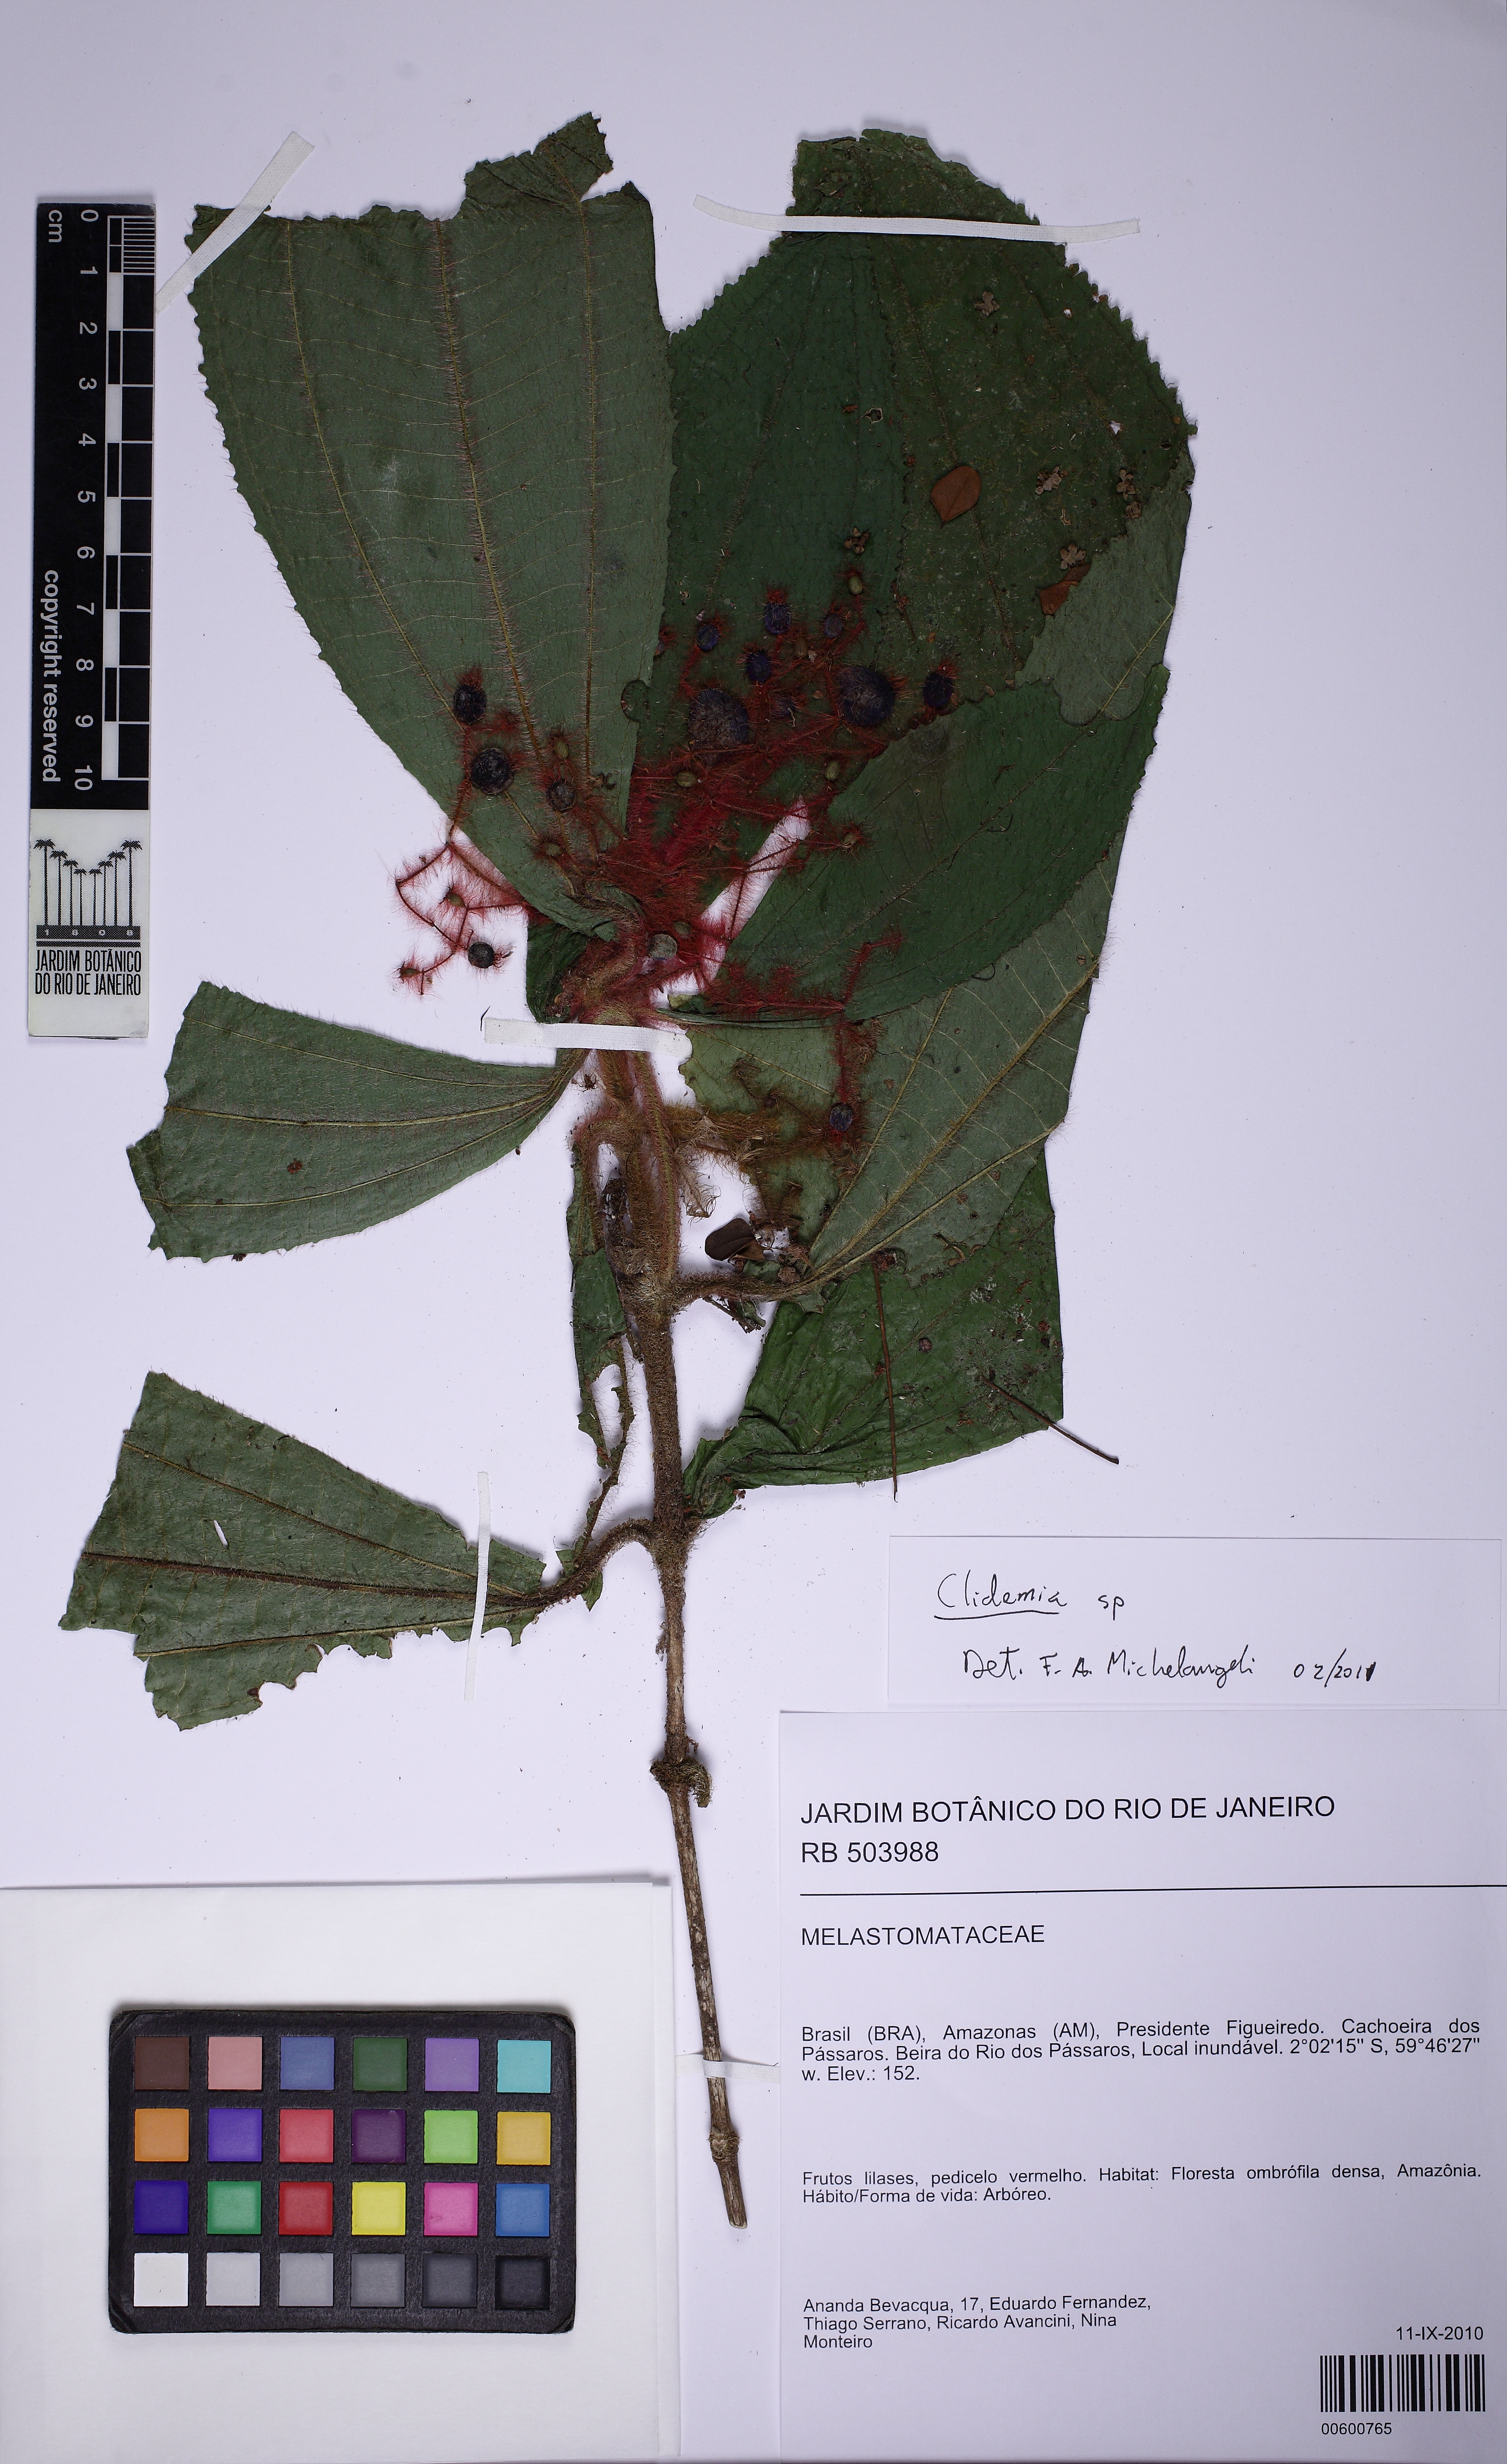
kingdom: Plantae
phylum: Tracheophyta
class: Magnoliopsida
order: Myrtales
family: Melastomataceae
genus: Miconia
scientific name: Miconia
